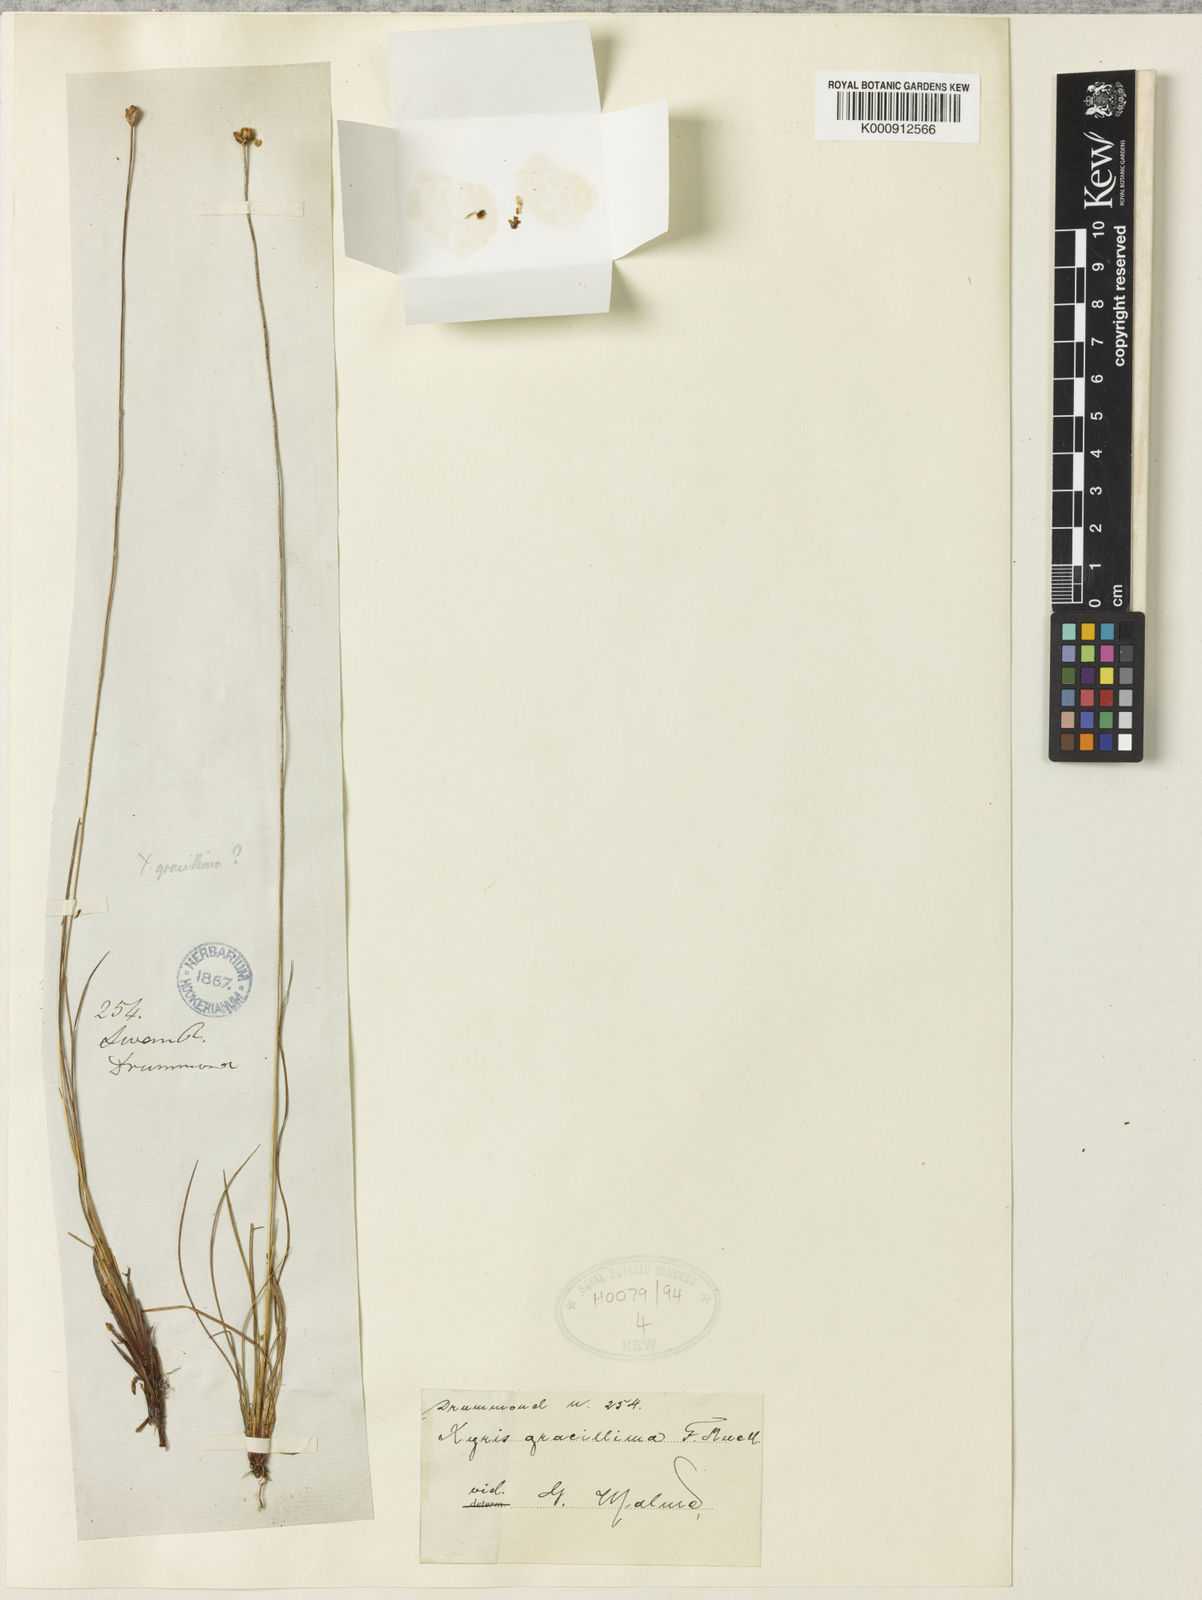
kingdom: Plantae
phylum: Tracheophyta
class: Liliopsida
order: Poales
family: Xyridaceae
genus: Xyris
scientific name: Xyris gracilis
